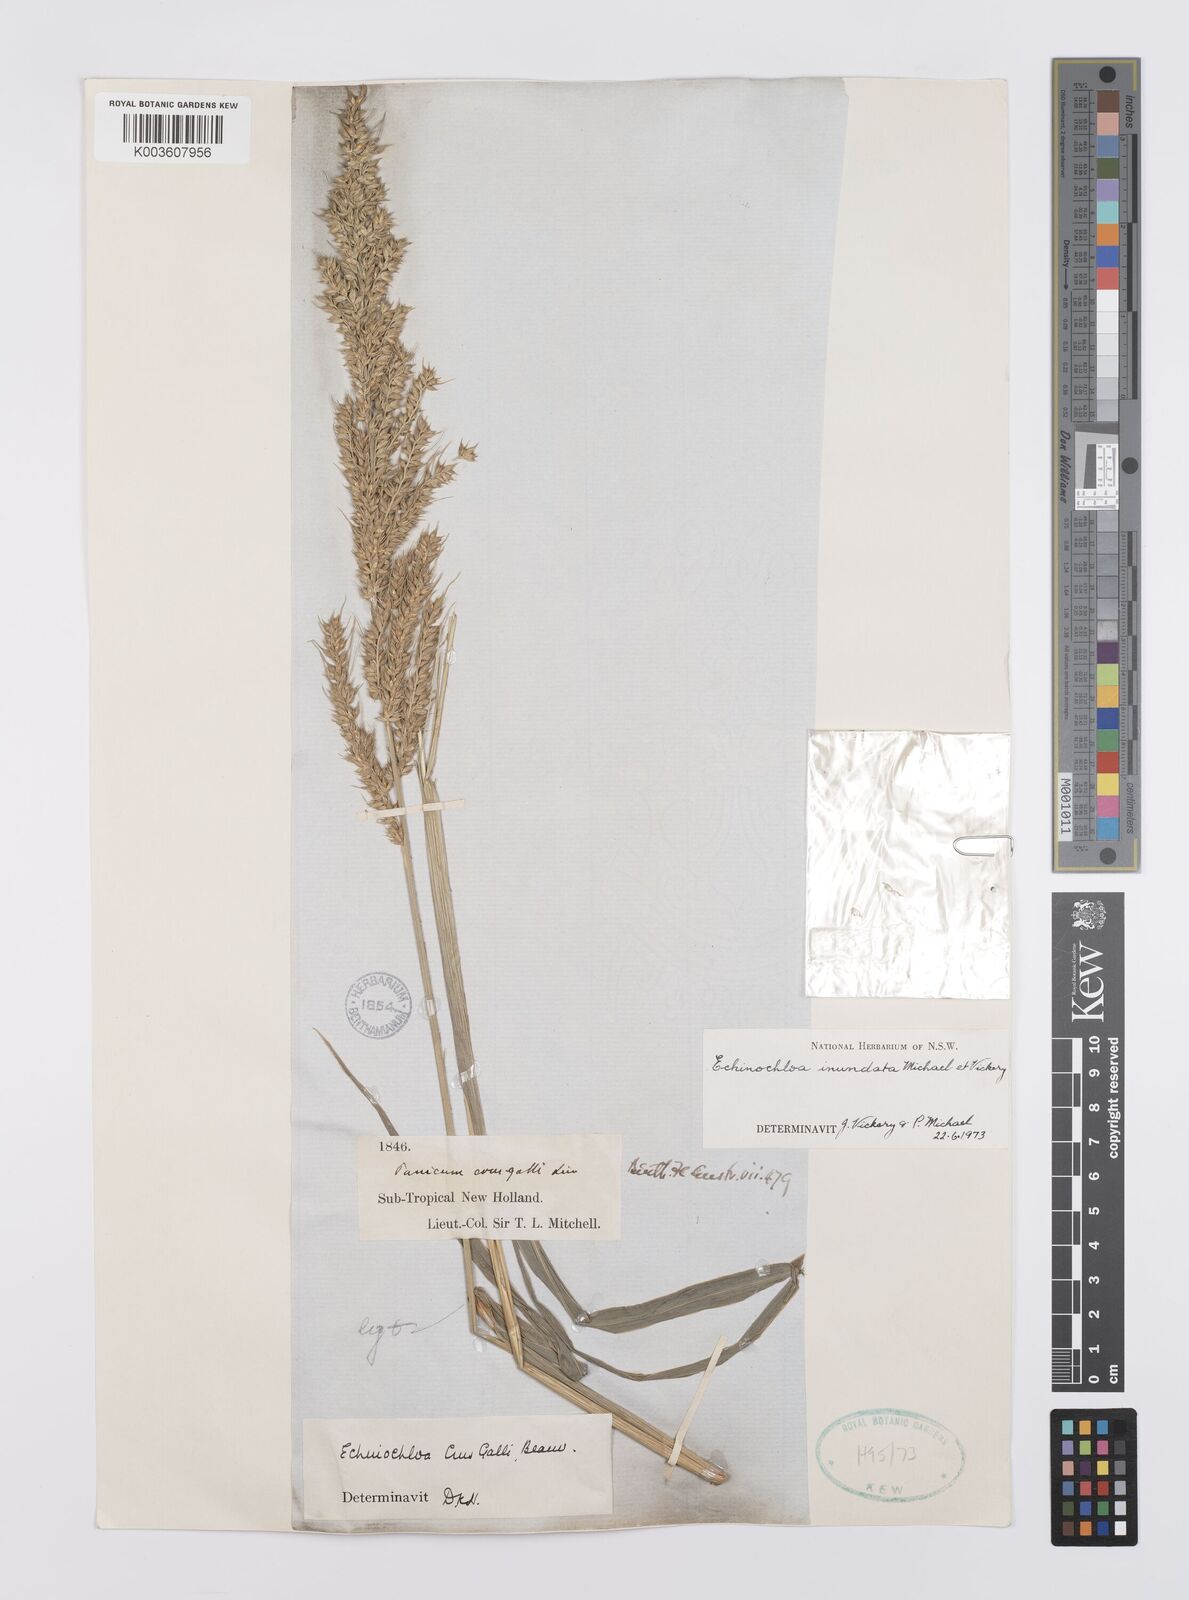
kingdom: Plantae
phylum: Tracheophyta
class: Liliopsida
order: Poales
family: Poaceae
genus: Echinochloa
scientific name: Echinochloa crus-galli
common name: Cockspur
